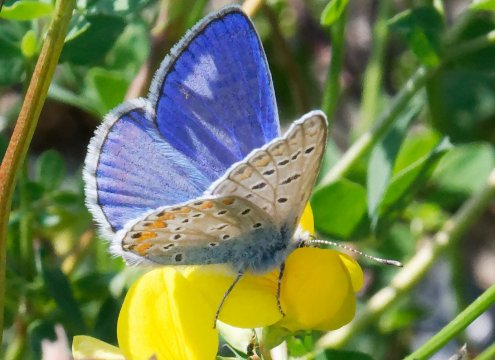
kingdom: Animalia
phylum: Arthropoda
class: Insecta
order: Lepidoptera
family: Lycaenidae
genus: Polyommatus
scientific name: Polyommatus icarus
